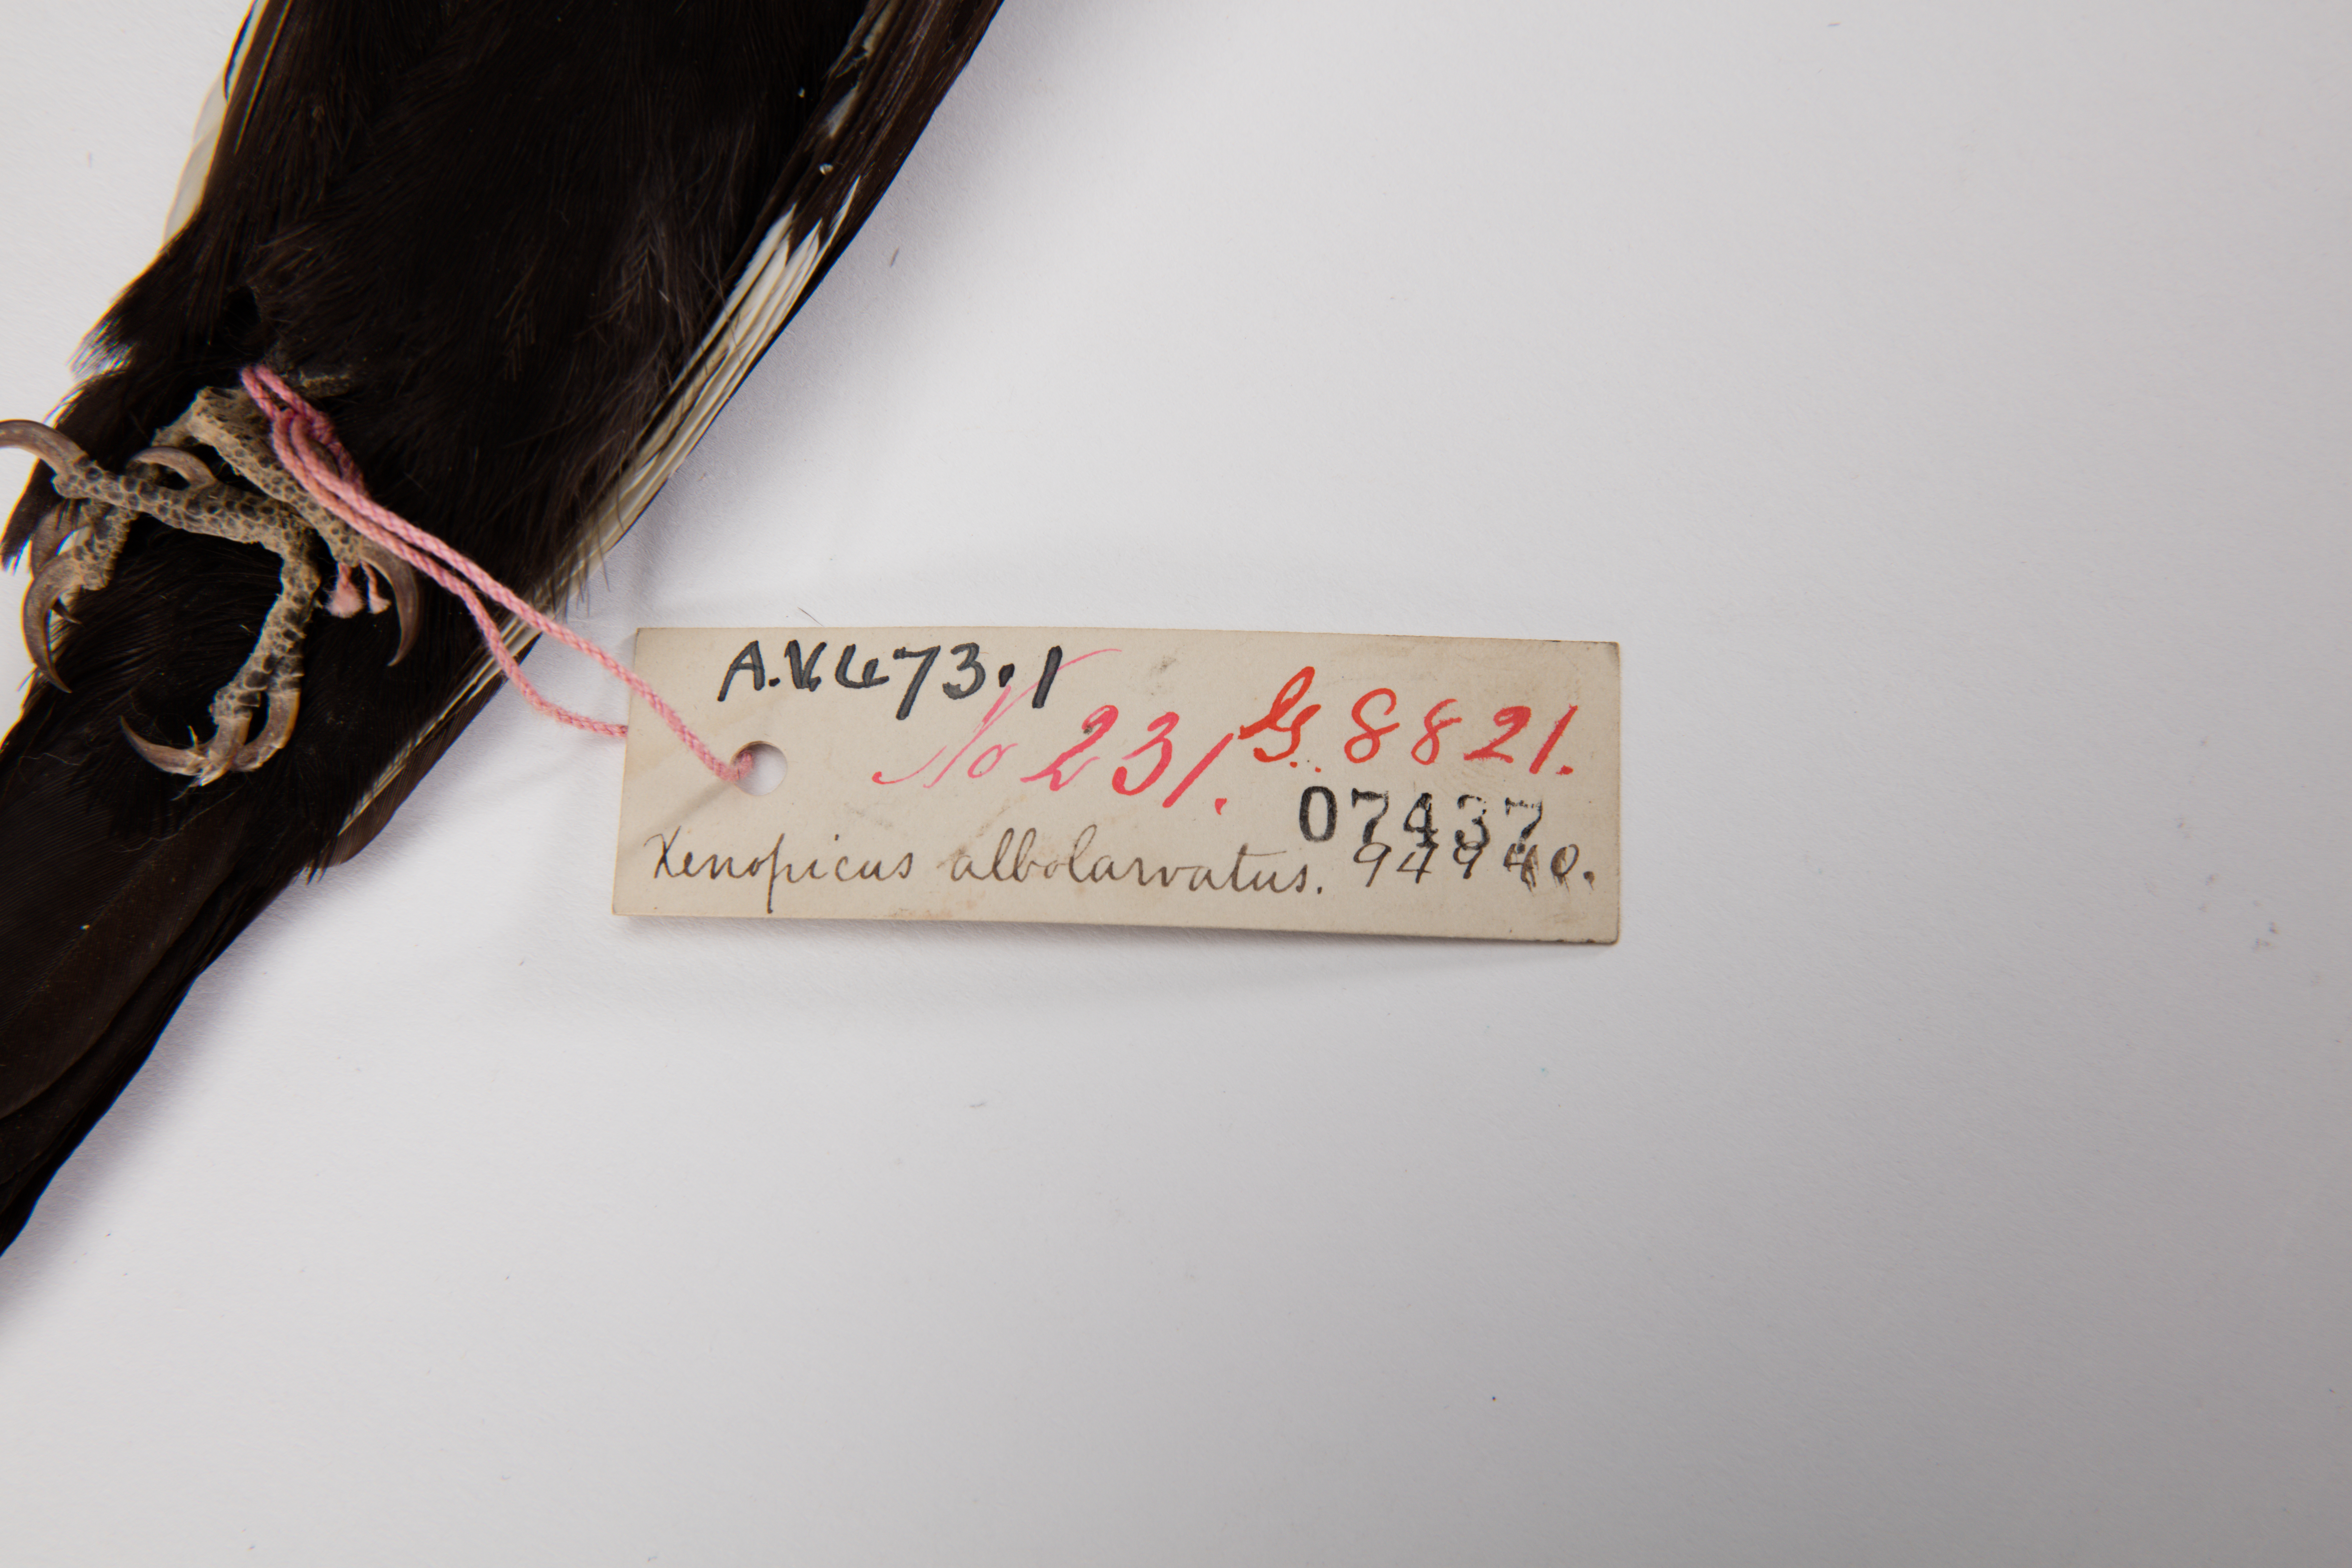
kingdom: Animalia
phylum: Chordata
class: Aves
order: Piciformes
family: Picidae
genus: Leuconotopicus
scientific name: Leuconotopicus albolarvatus
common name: White-headed woodpecker
